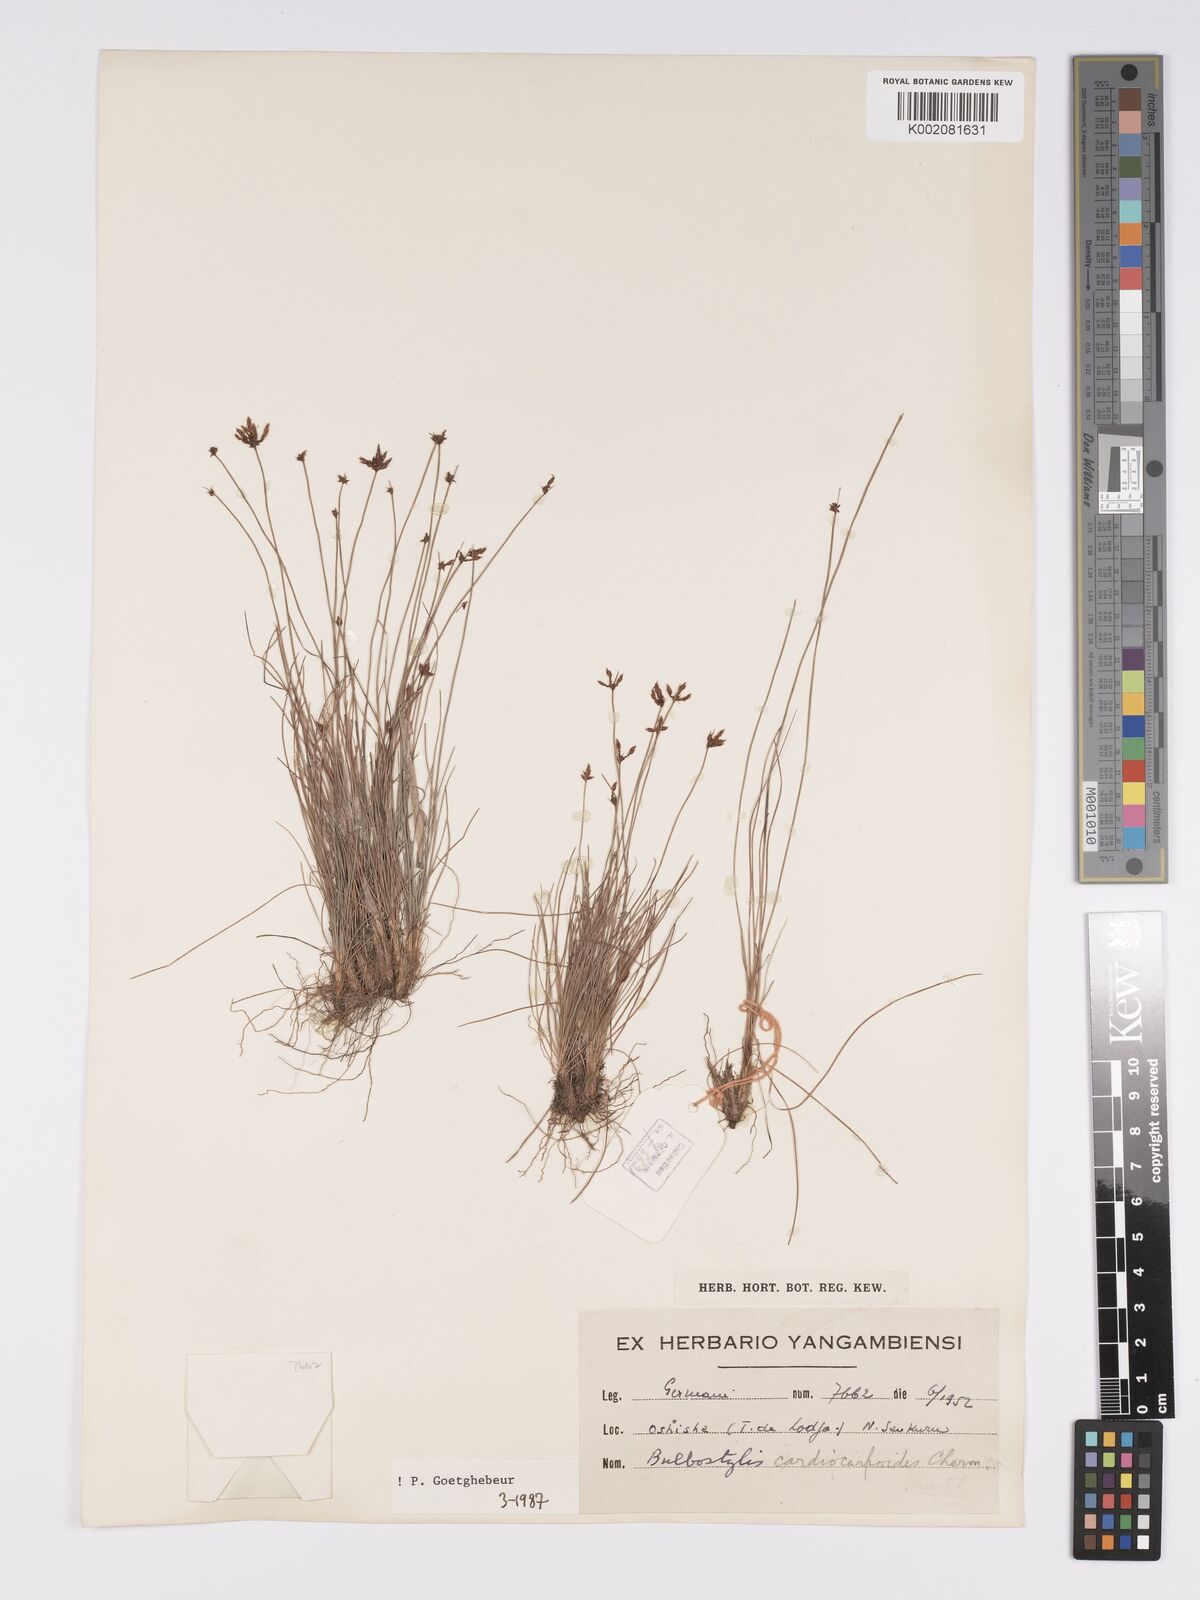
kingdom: Plantae
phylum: Tracheophyta
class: Liliopsida
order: Poales
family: Cyperaceae
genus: Bulbostylis
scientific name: Bulbostylis cardiocarpoides
